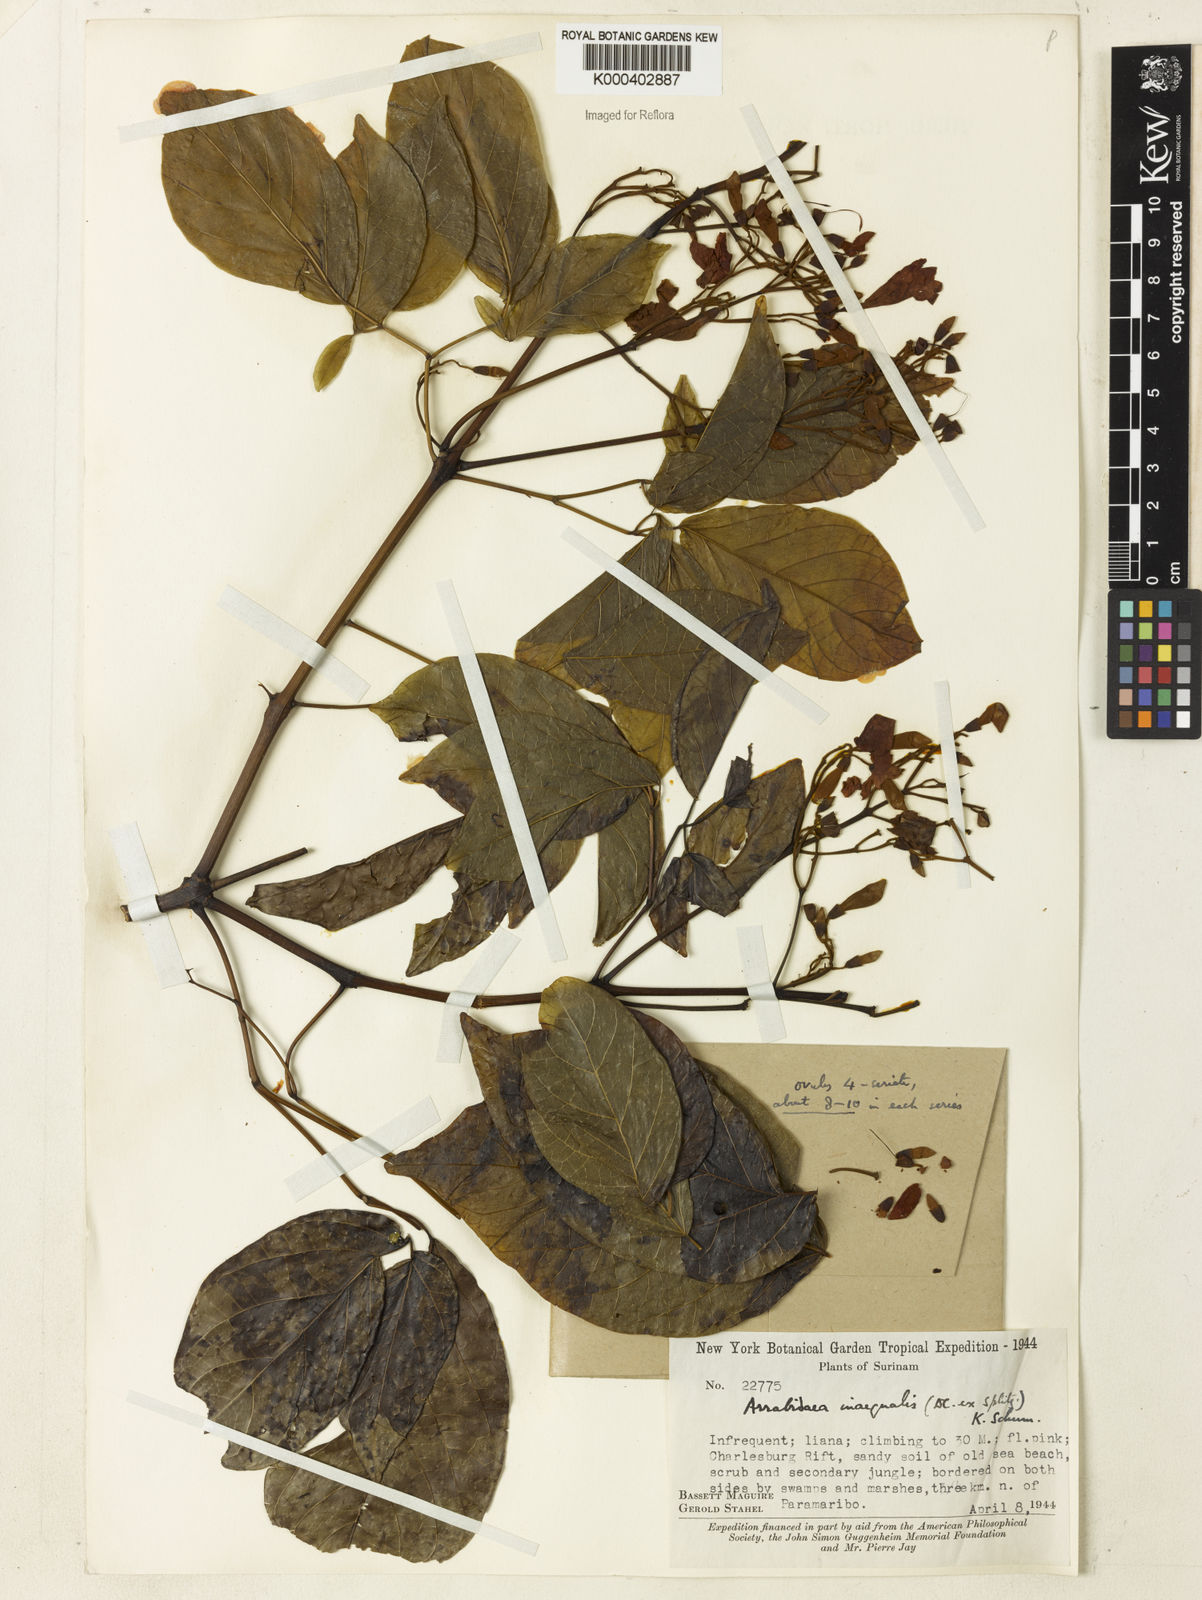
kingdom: Plantae
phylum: Tracheophyta
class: Magnoliopsida
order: Lamiales
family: Bignoniaceae
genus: Cuspidaria
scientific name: Cuspidaria inaequalis
